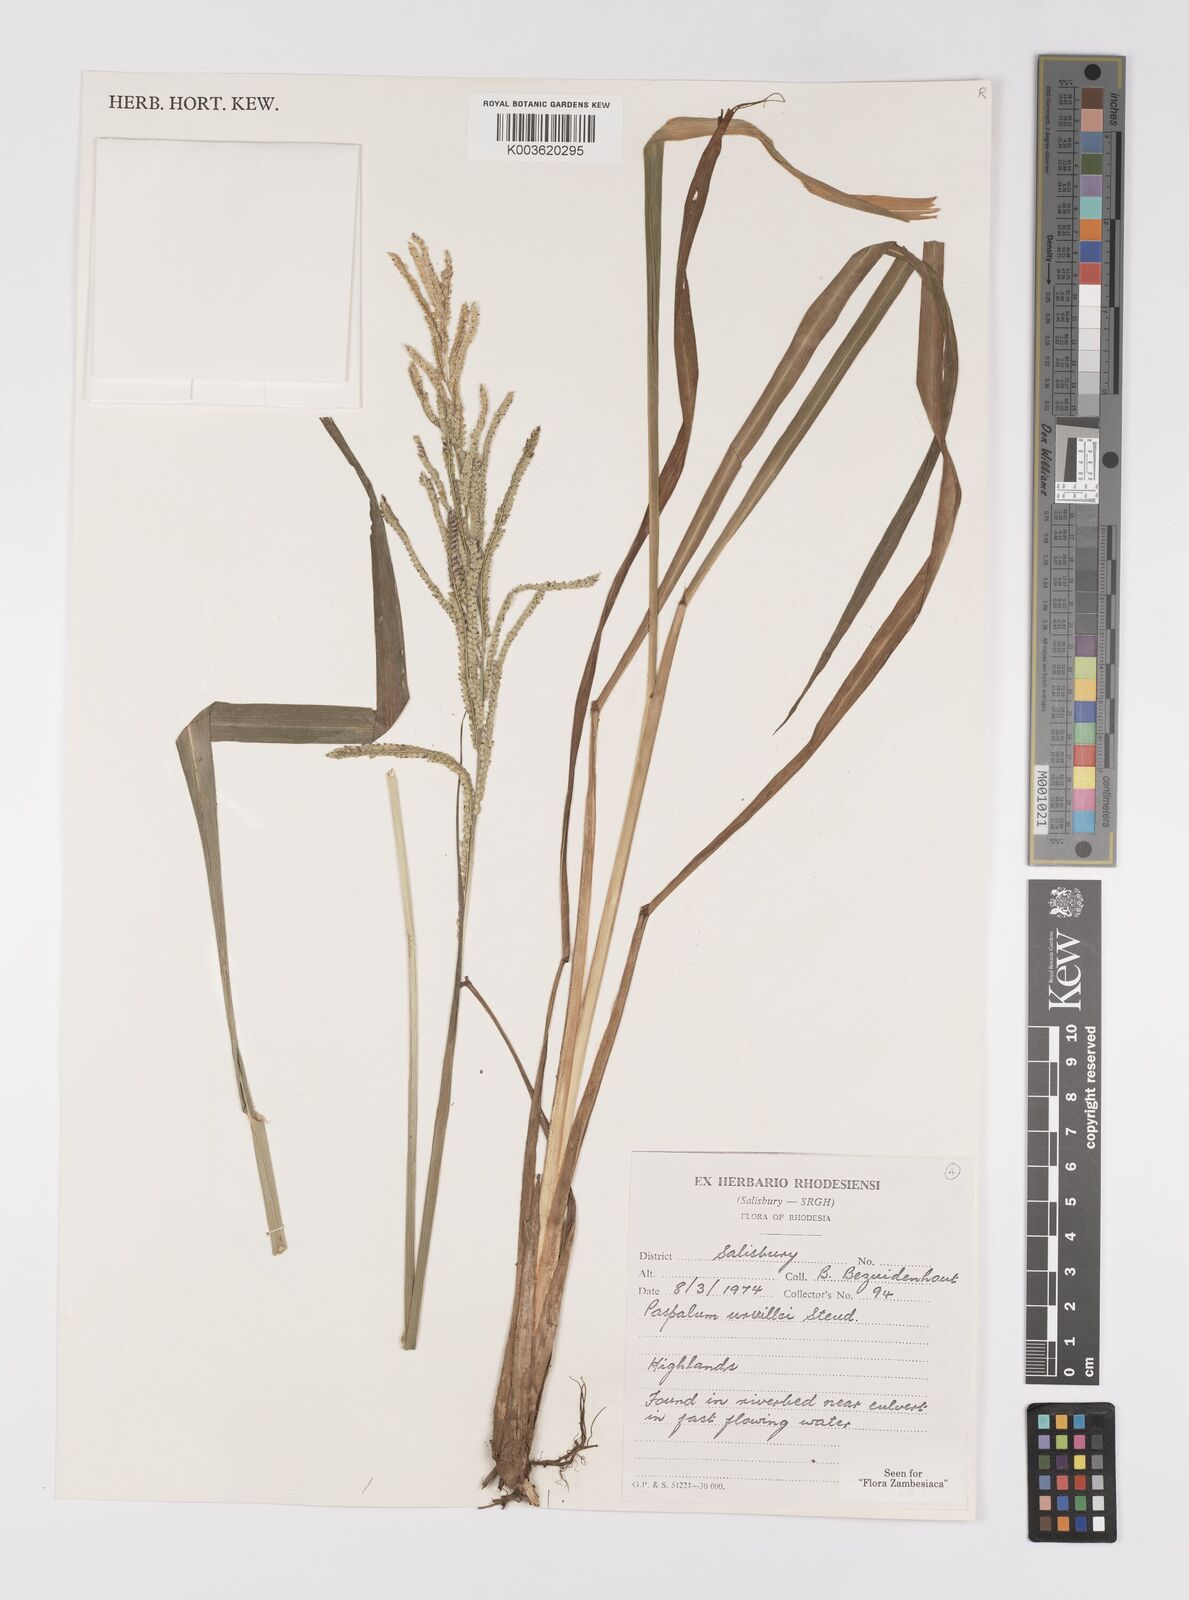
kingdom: Plantae
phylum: Tracheophyta
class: Liliopsida
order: Poales
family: Poaceae
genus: Paspalum
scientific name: Paspalum urvillei
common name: Vasey's grass
